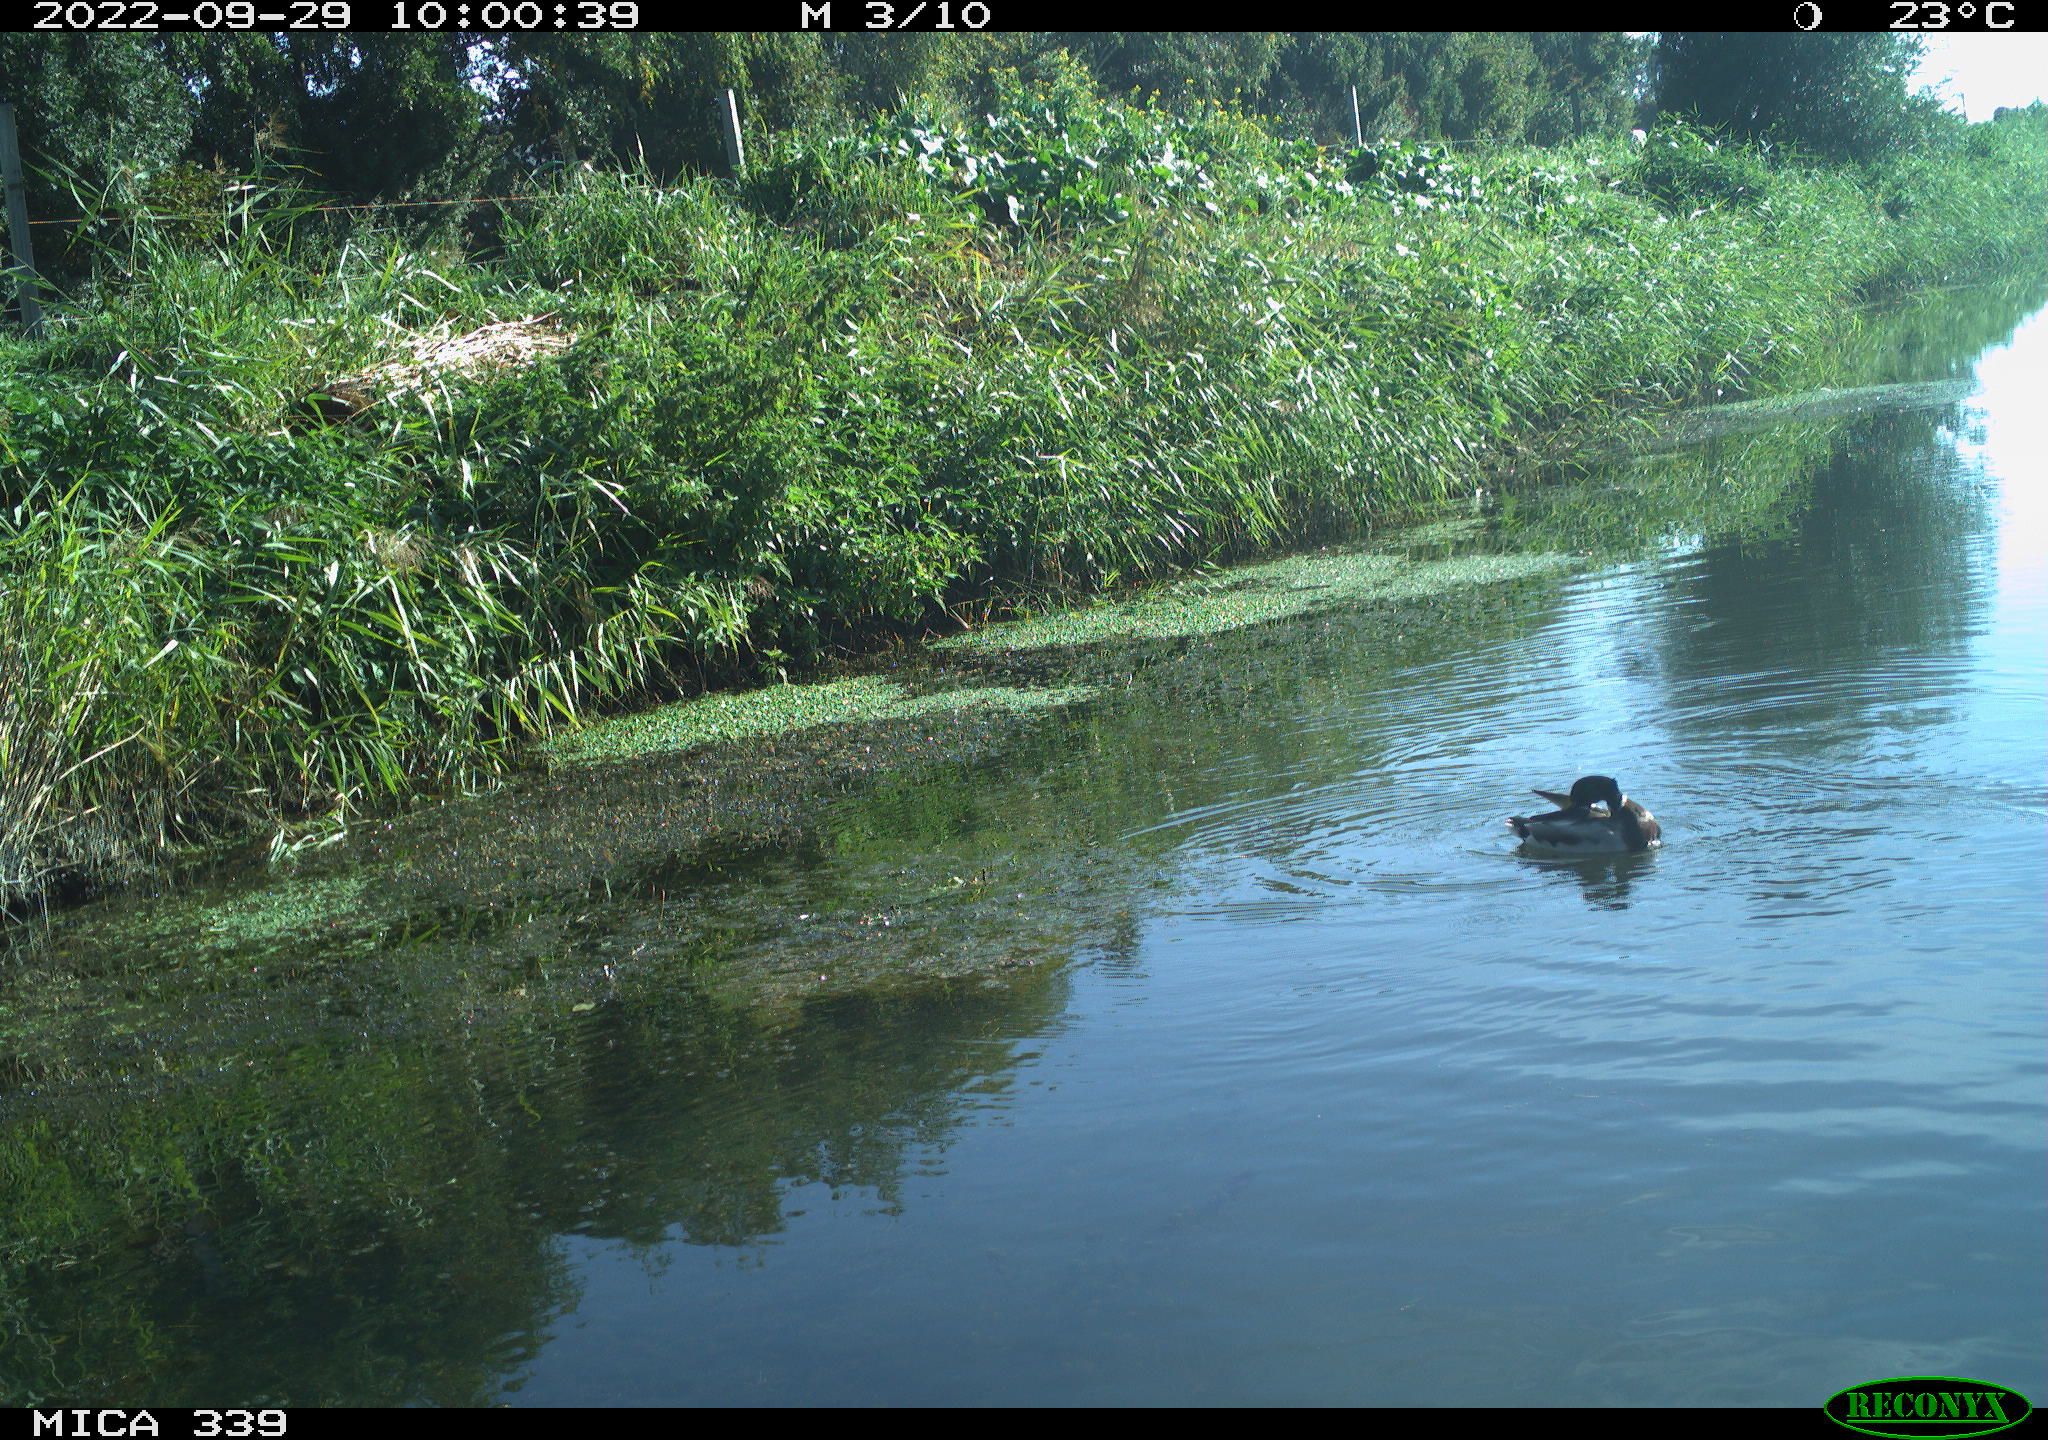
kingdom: Animalia
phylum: Chordata
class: Aves
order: Anseriformes
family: Anatidae
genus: Anas
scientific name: Anas platyrhynchos
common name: Mallard
